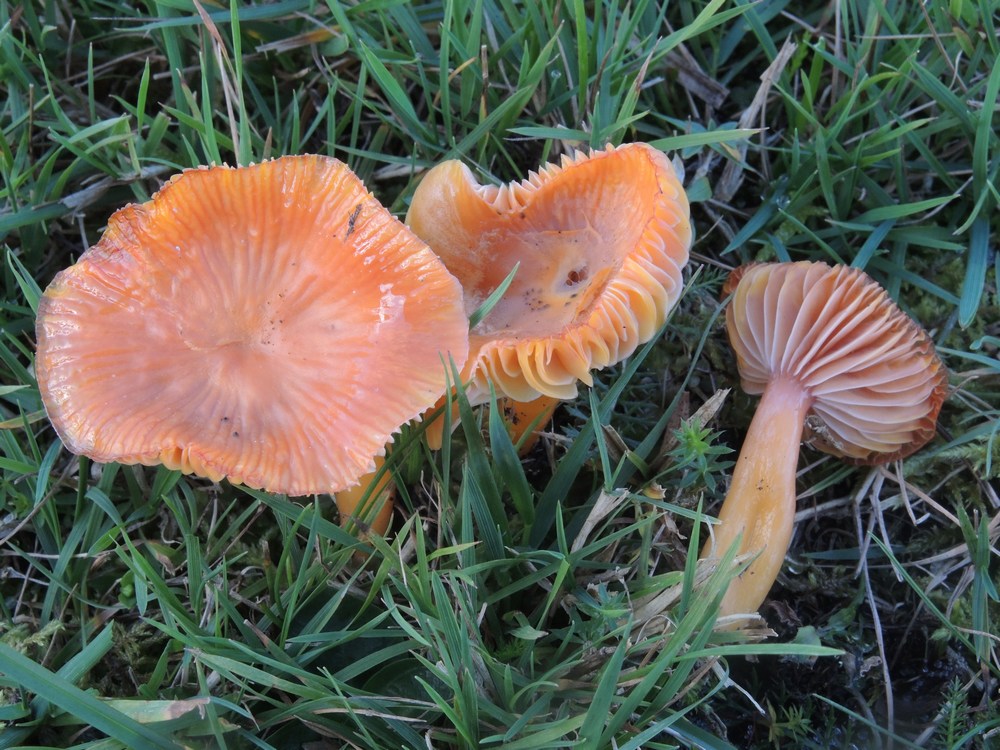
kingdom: Fungi
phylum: Basidiomycota
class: Agaricomycetes
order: Agaricales
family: Hygrophoraceae
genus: Gliophorus
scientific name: Gliophorus laetus
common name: brusk-vokshat
